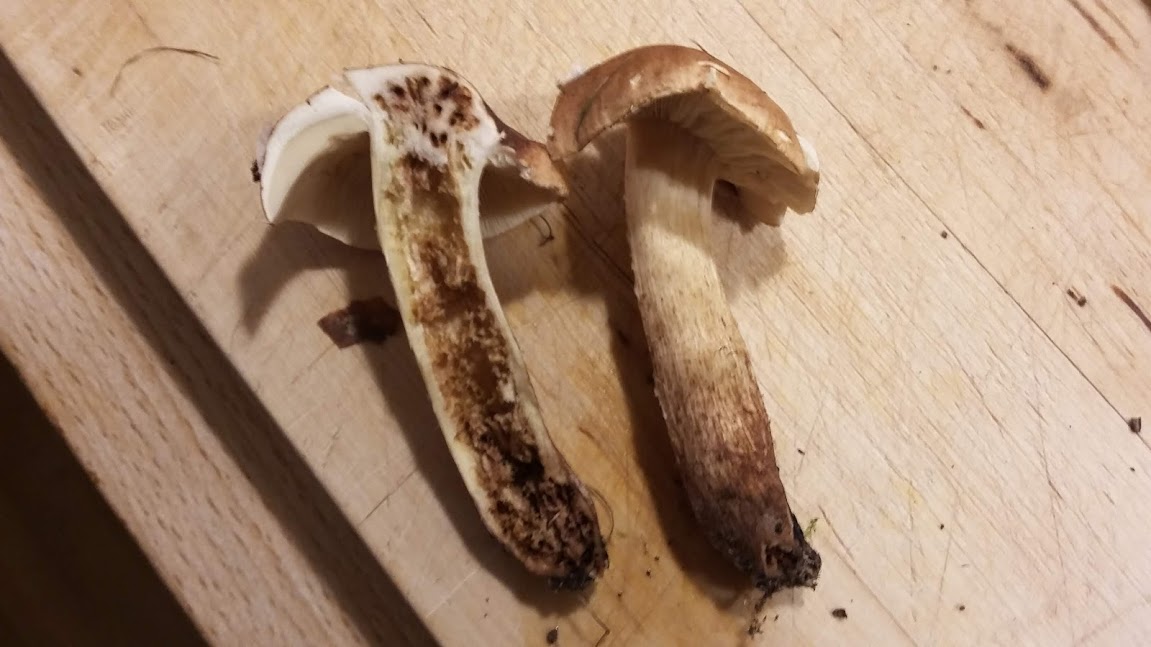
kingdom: Fungi
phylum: Basidiomycota
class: Agaricomycetes
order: Agaricales
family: Tricholomataceae
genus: Tricholoma
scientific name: Tricholoma fulvum
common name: birke-ridderhat
